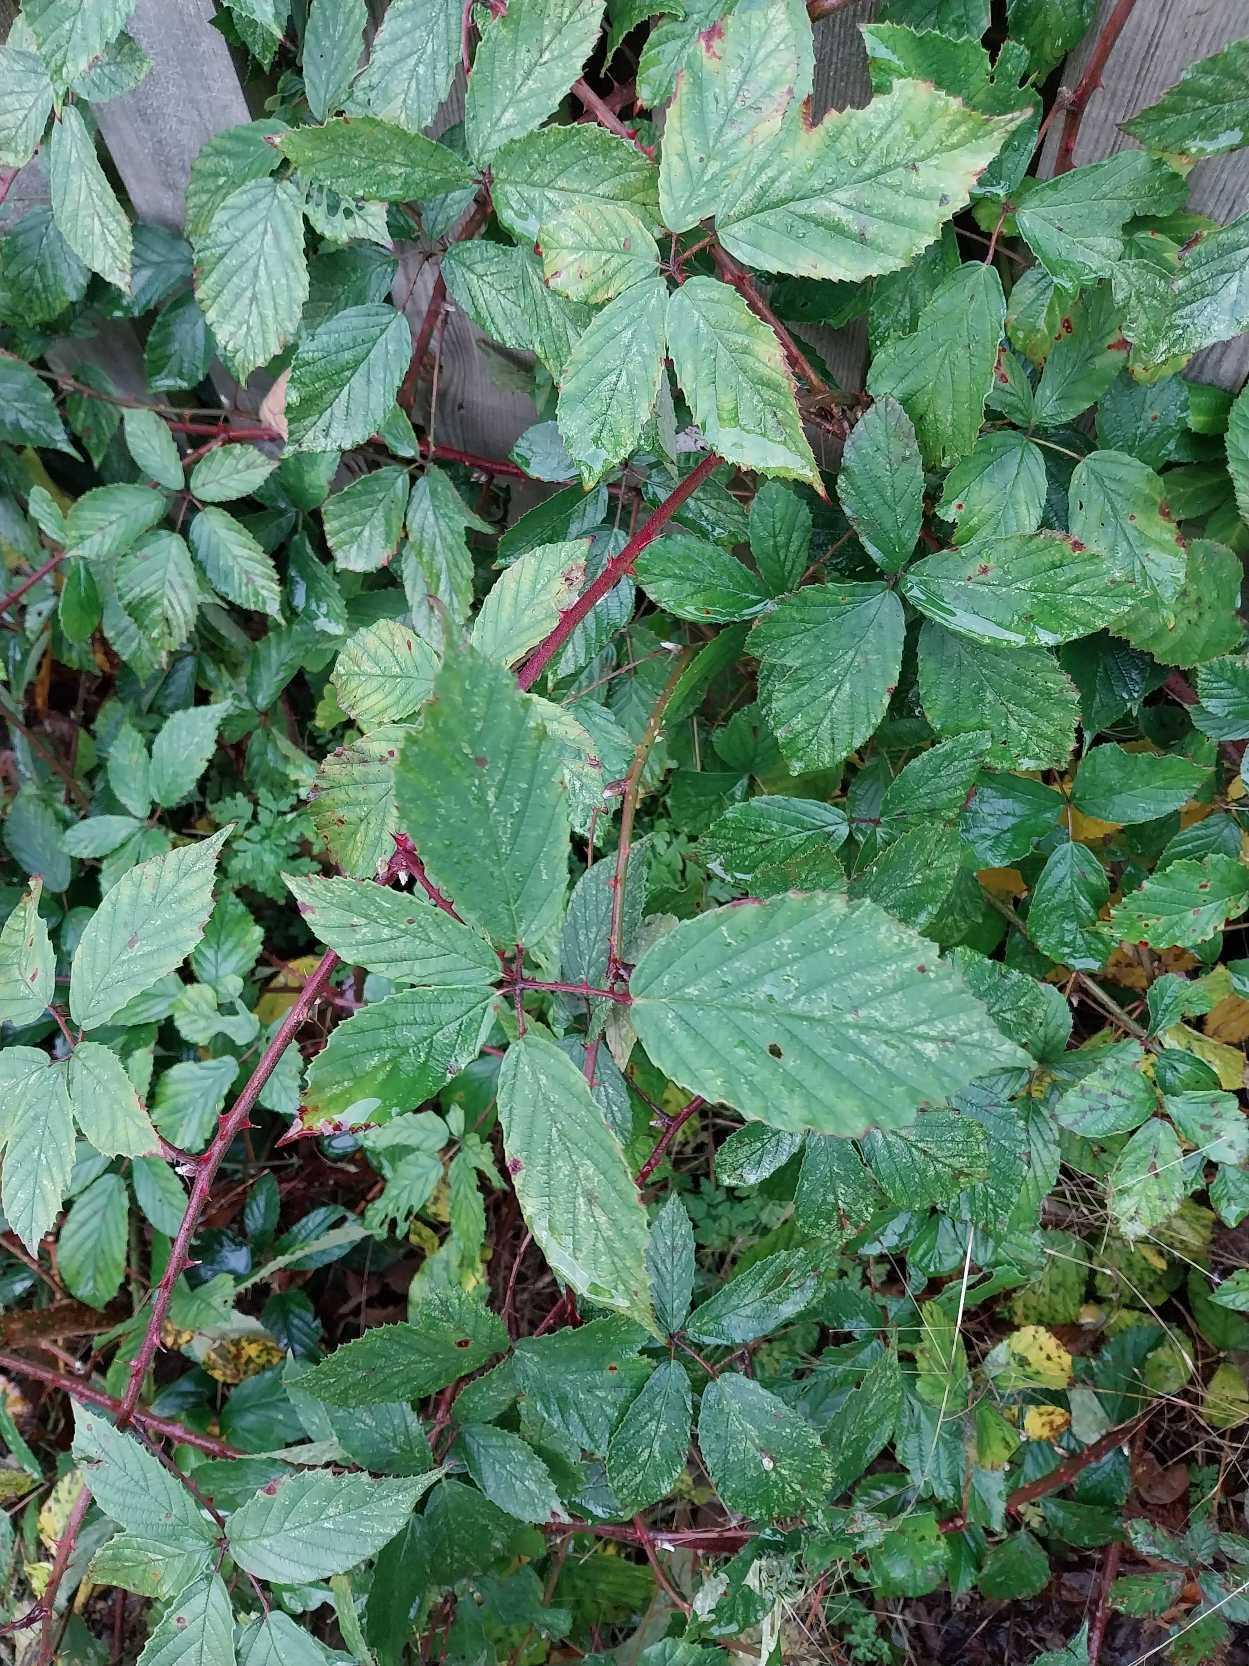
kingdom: Plantae
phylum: Tracheophyta
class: Magnoliopsida
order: Rosales
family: Rosaceae
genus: Rubus
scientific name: Rubus radula
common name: Rasperu brombær
